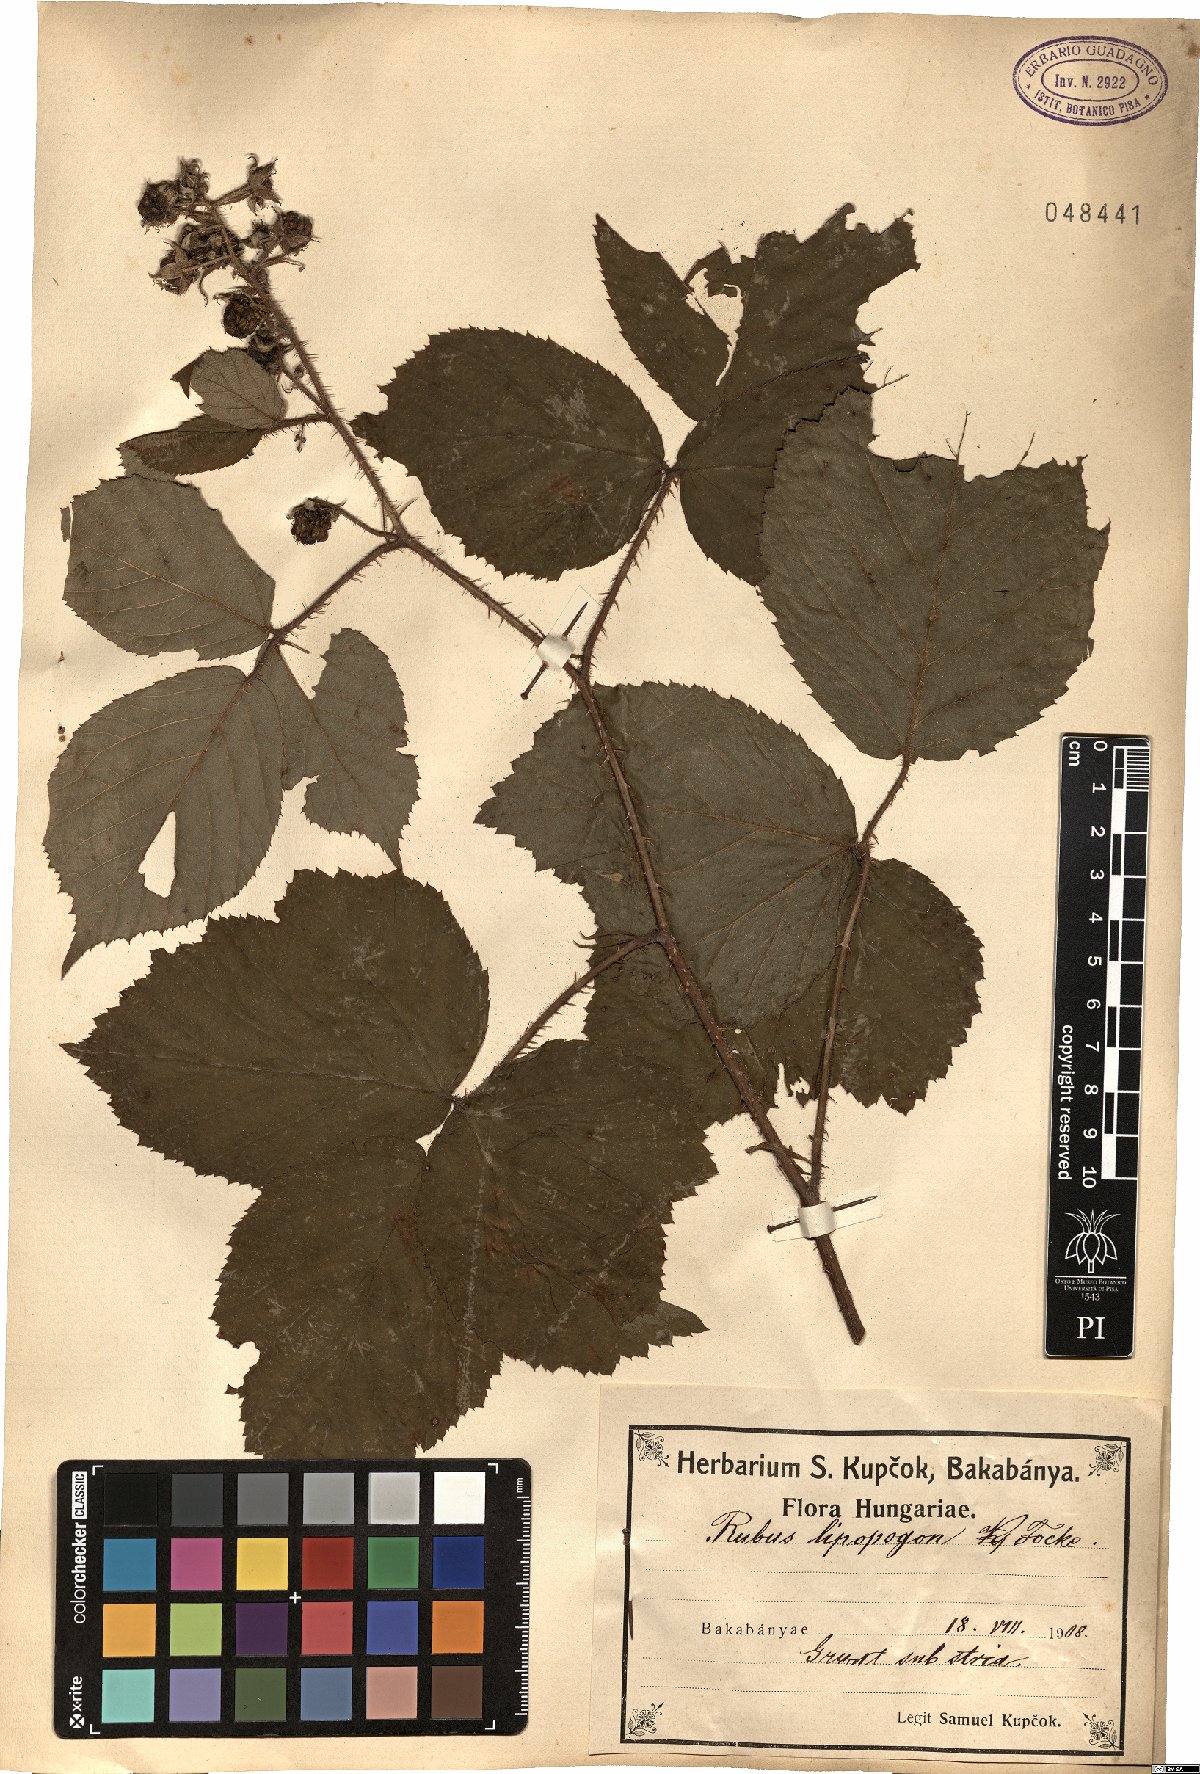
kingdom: Plantae
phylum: Tracheophyta
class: Magnoliopsida
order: Rosales
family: Rosaceae
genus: Rubus
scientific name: Rubus
